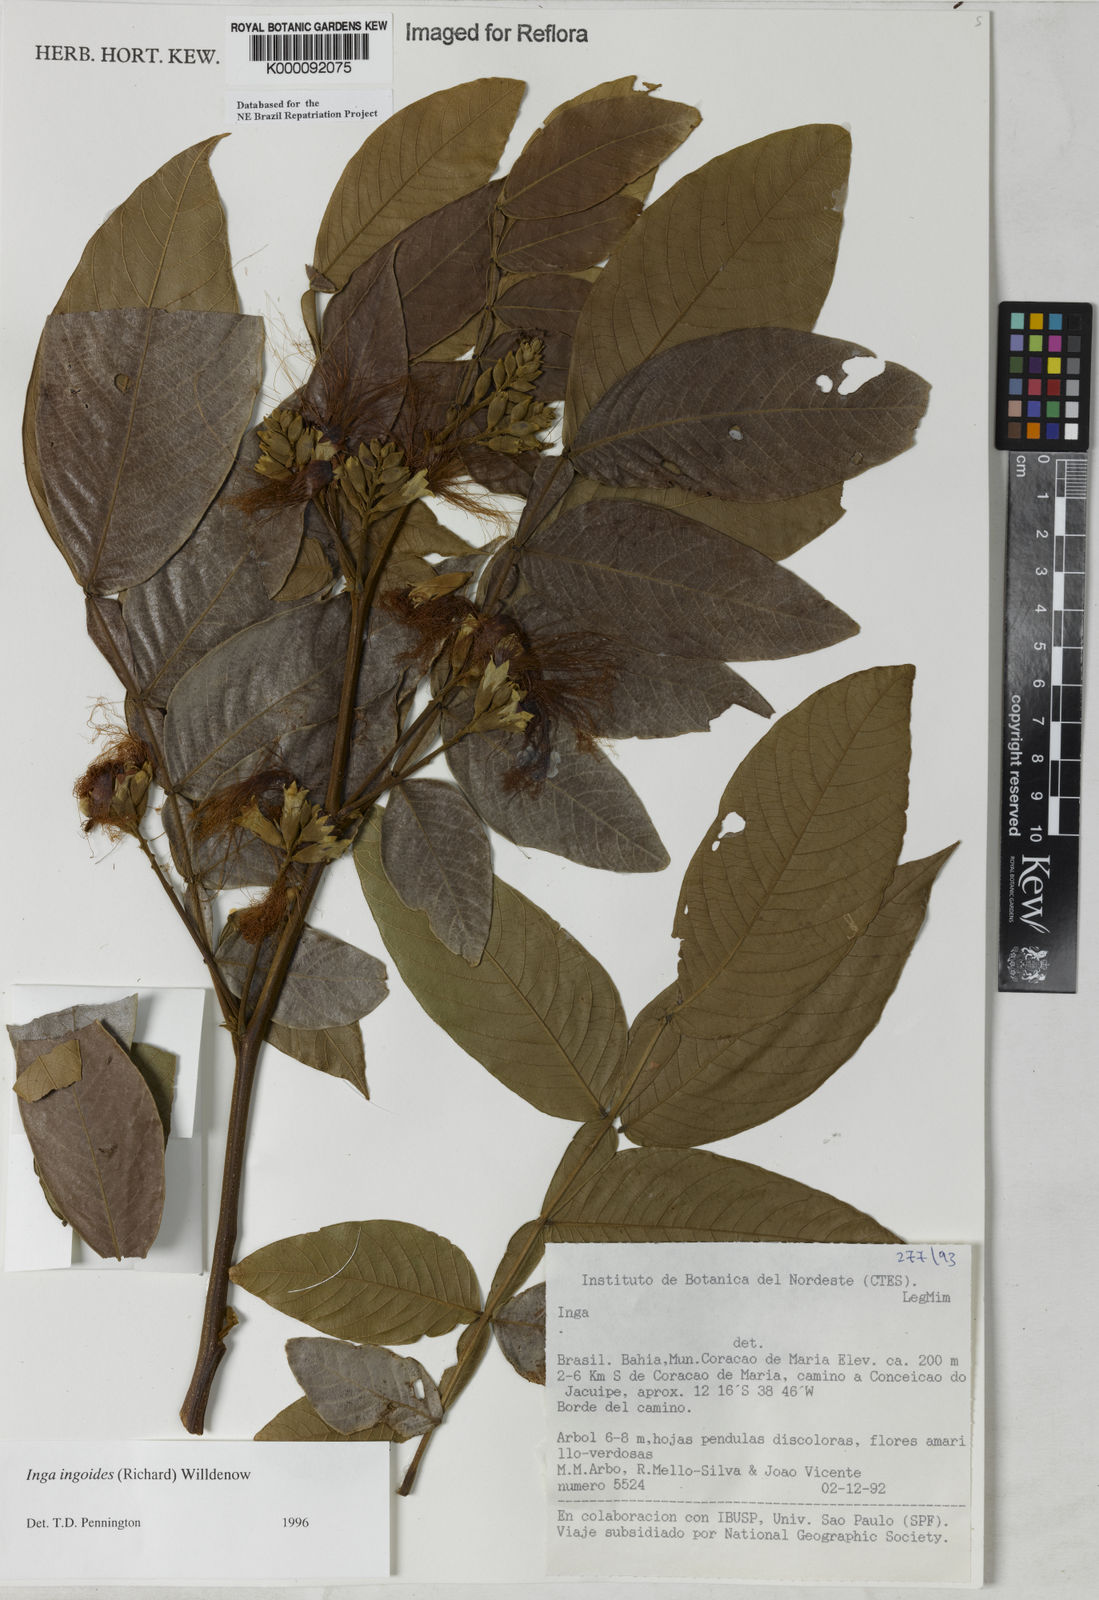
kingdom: Plantae
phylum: Tracheophyta
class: Magnoliopsida
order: Fabales
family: Fabaceae
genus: Inga
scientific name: Inga ingoides
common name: Spanish ash
